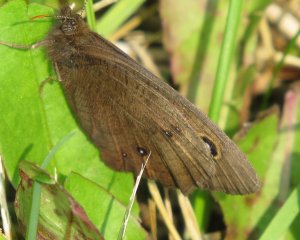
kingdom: Animalia
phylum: Arthropoda
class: Insecta
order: Lepidoptera
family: Nymphalidae
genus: Cercyonis
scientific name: Cercyonis pegala
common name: Common Wood-Nymph
